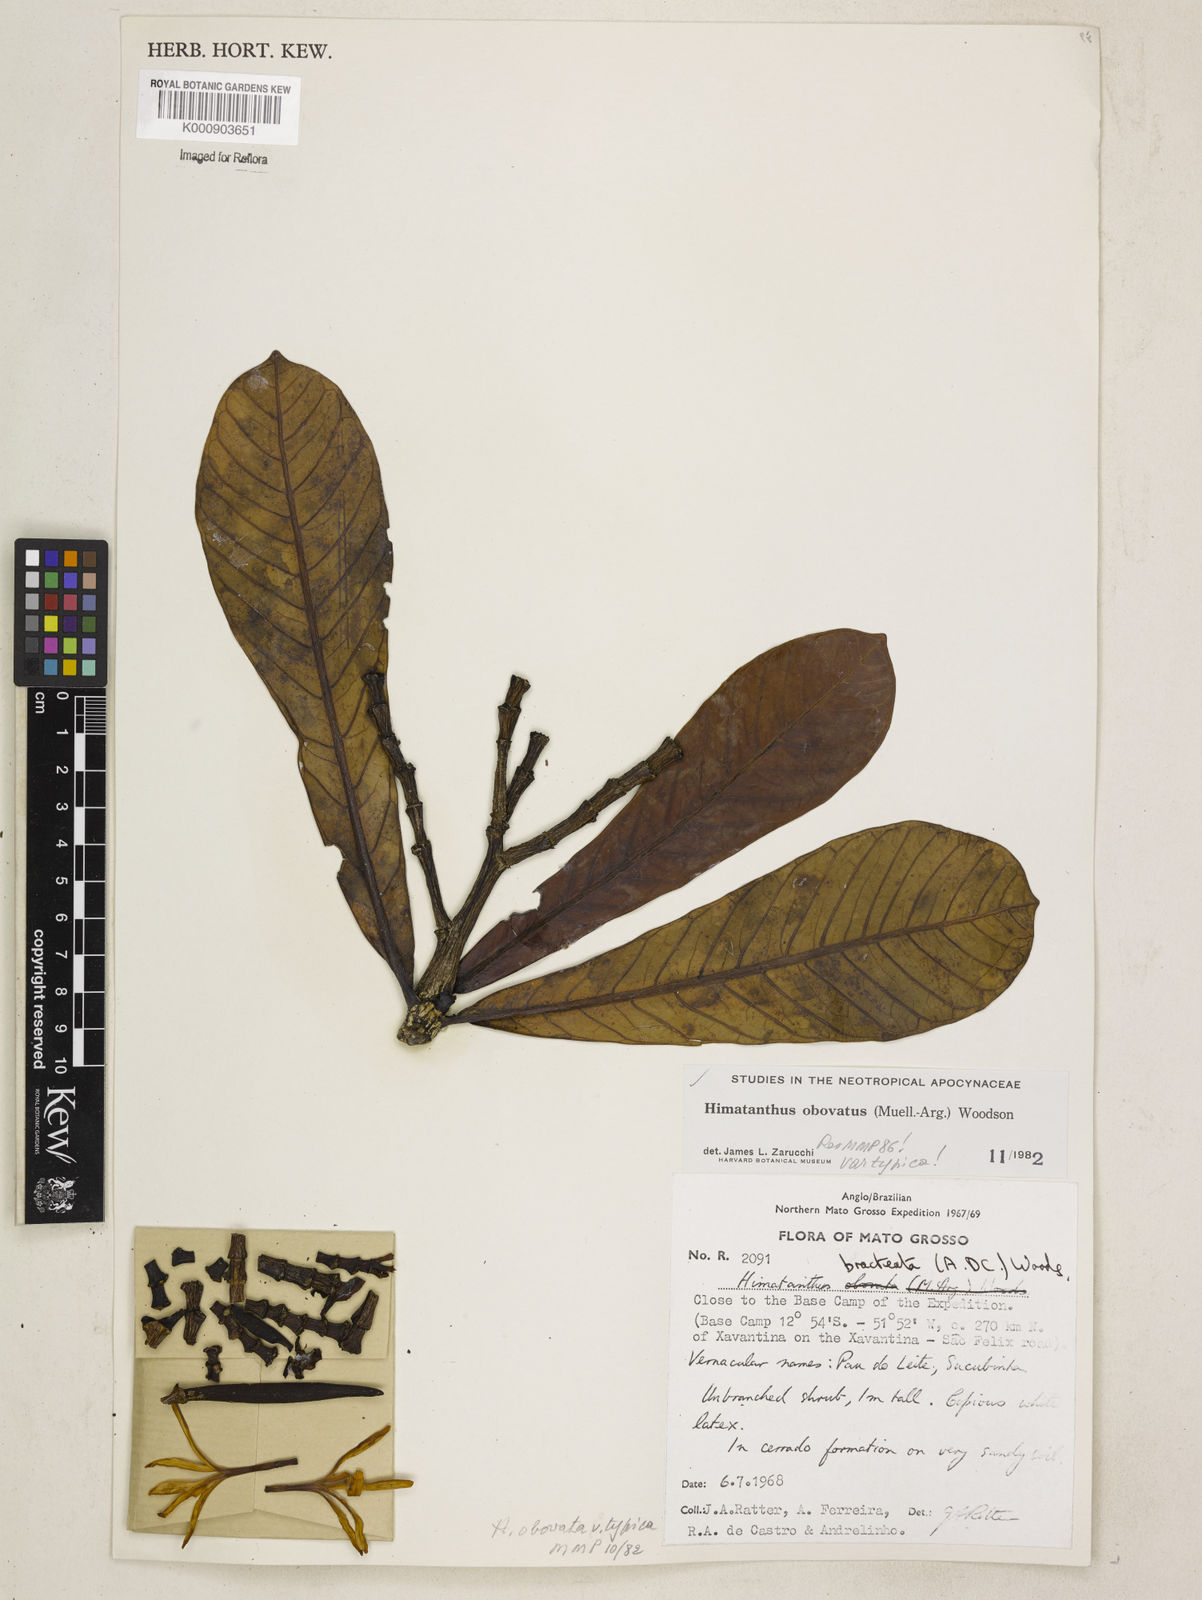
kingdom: Plantae
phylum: Tracheophyta
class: Magnoliopsida
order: Gentianales
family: Apocynaceae
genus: Himatanthus
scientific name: Himatanthus
